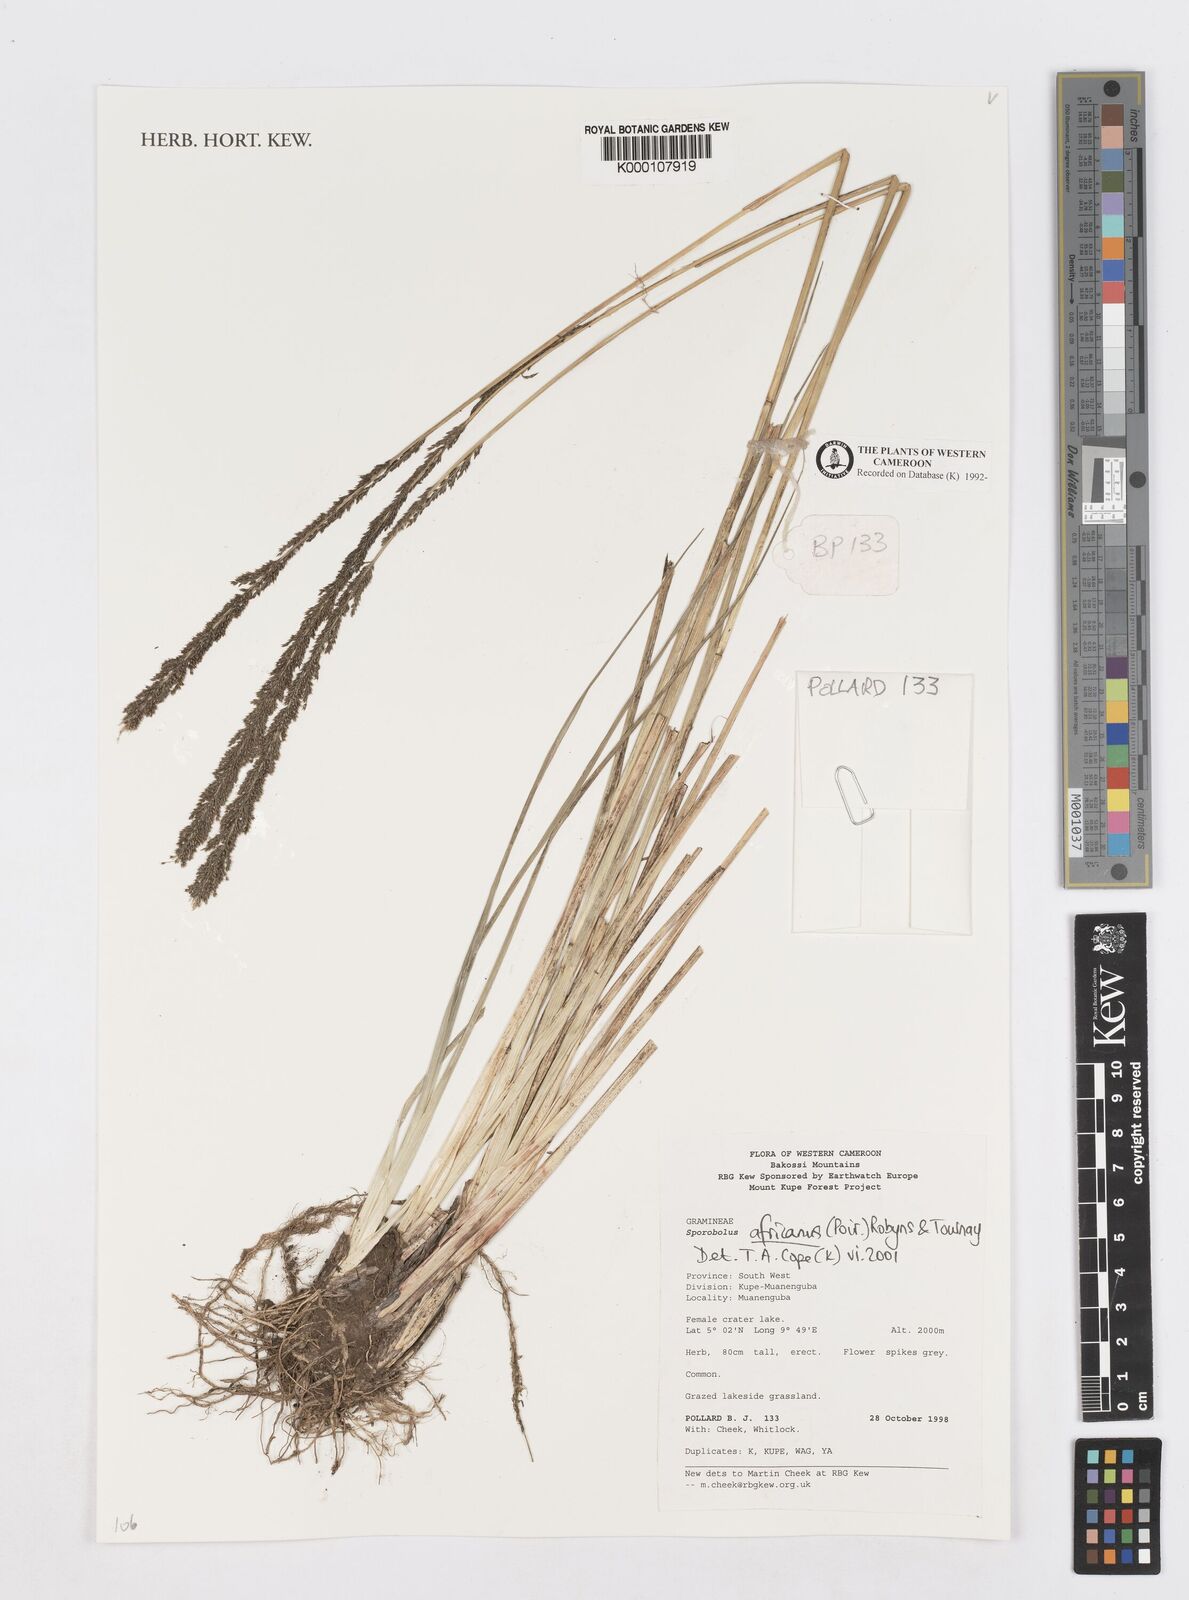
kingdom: Plantae
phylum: Tracheophyta
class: Liliopsida
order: Poales
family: Poaceae
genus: Sporobolus
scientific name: Sporobolus africanus
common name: African dropseed
